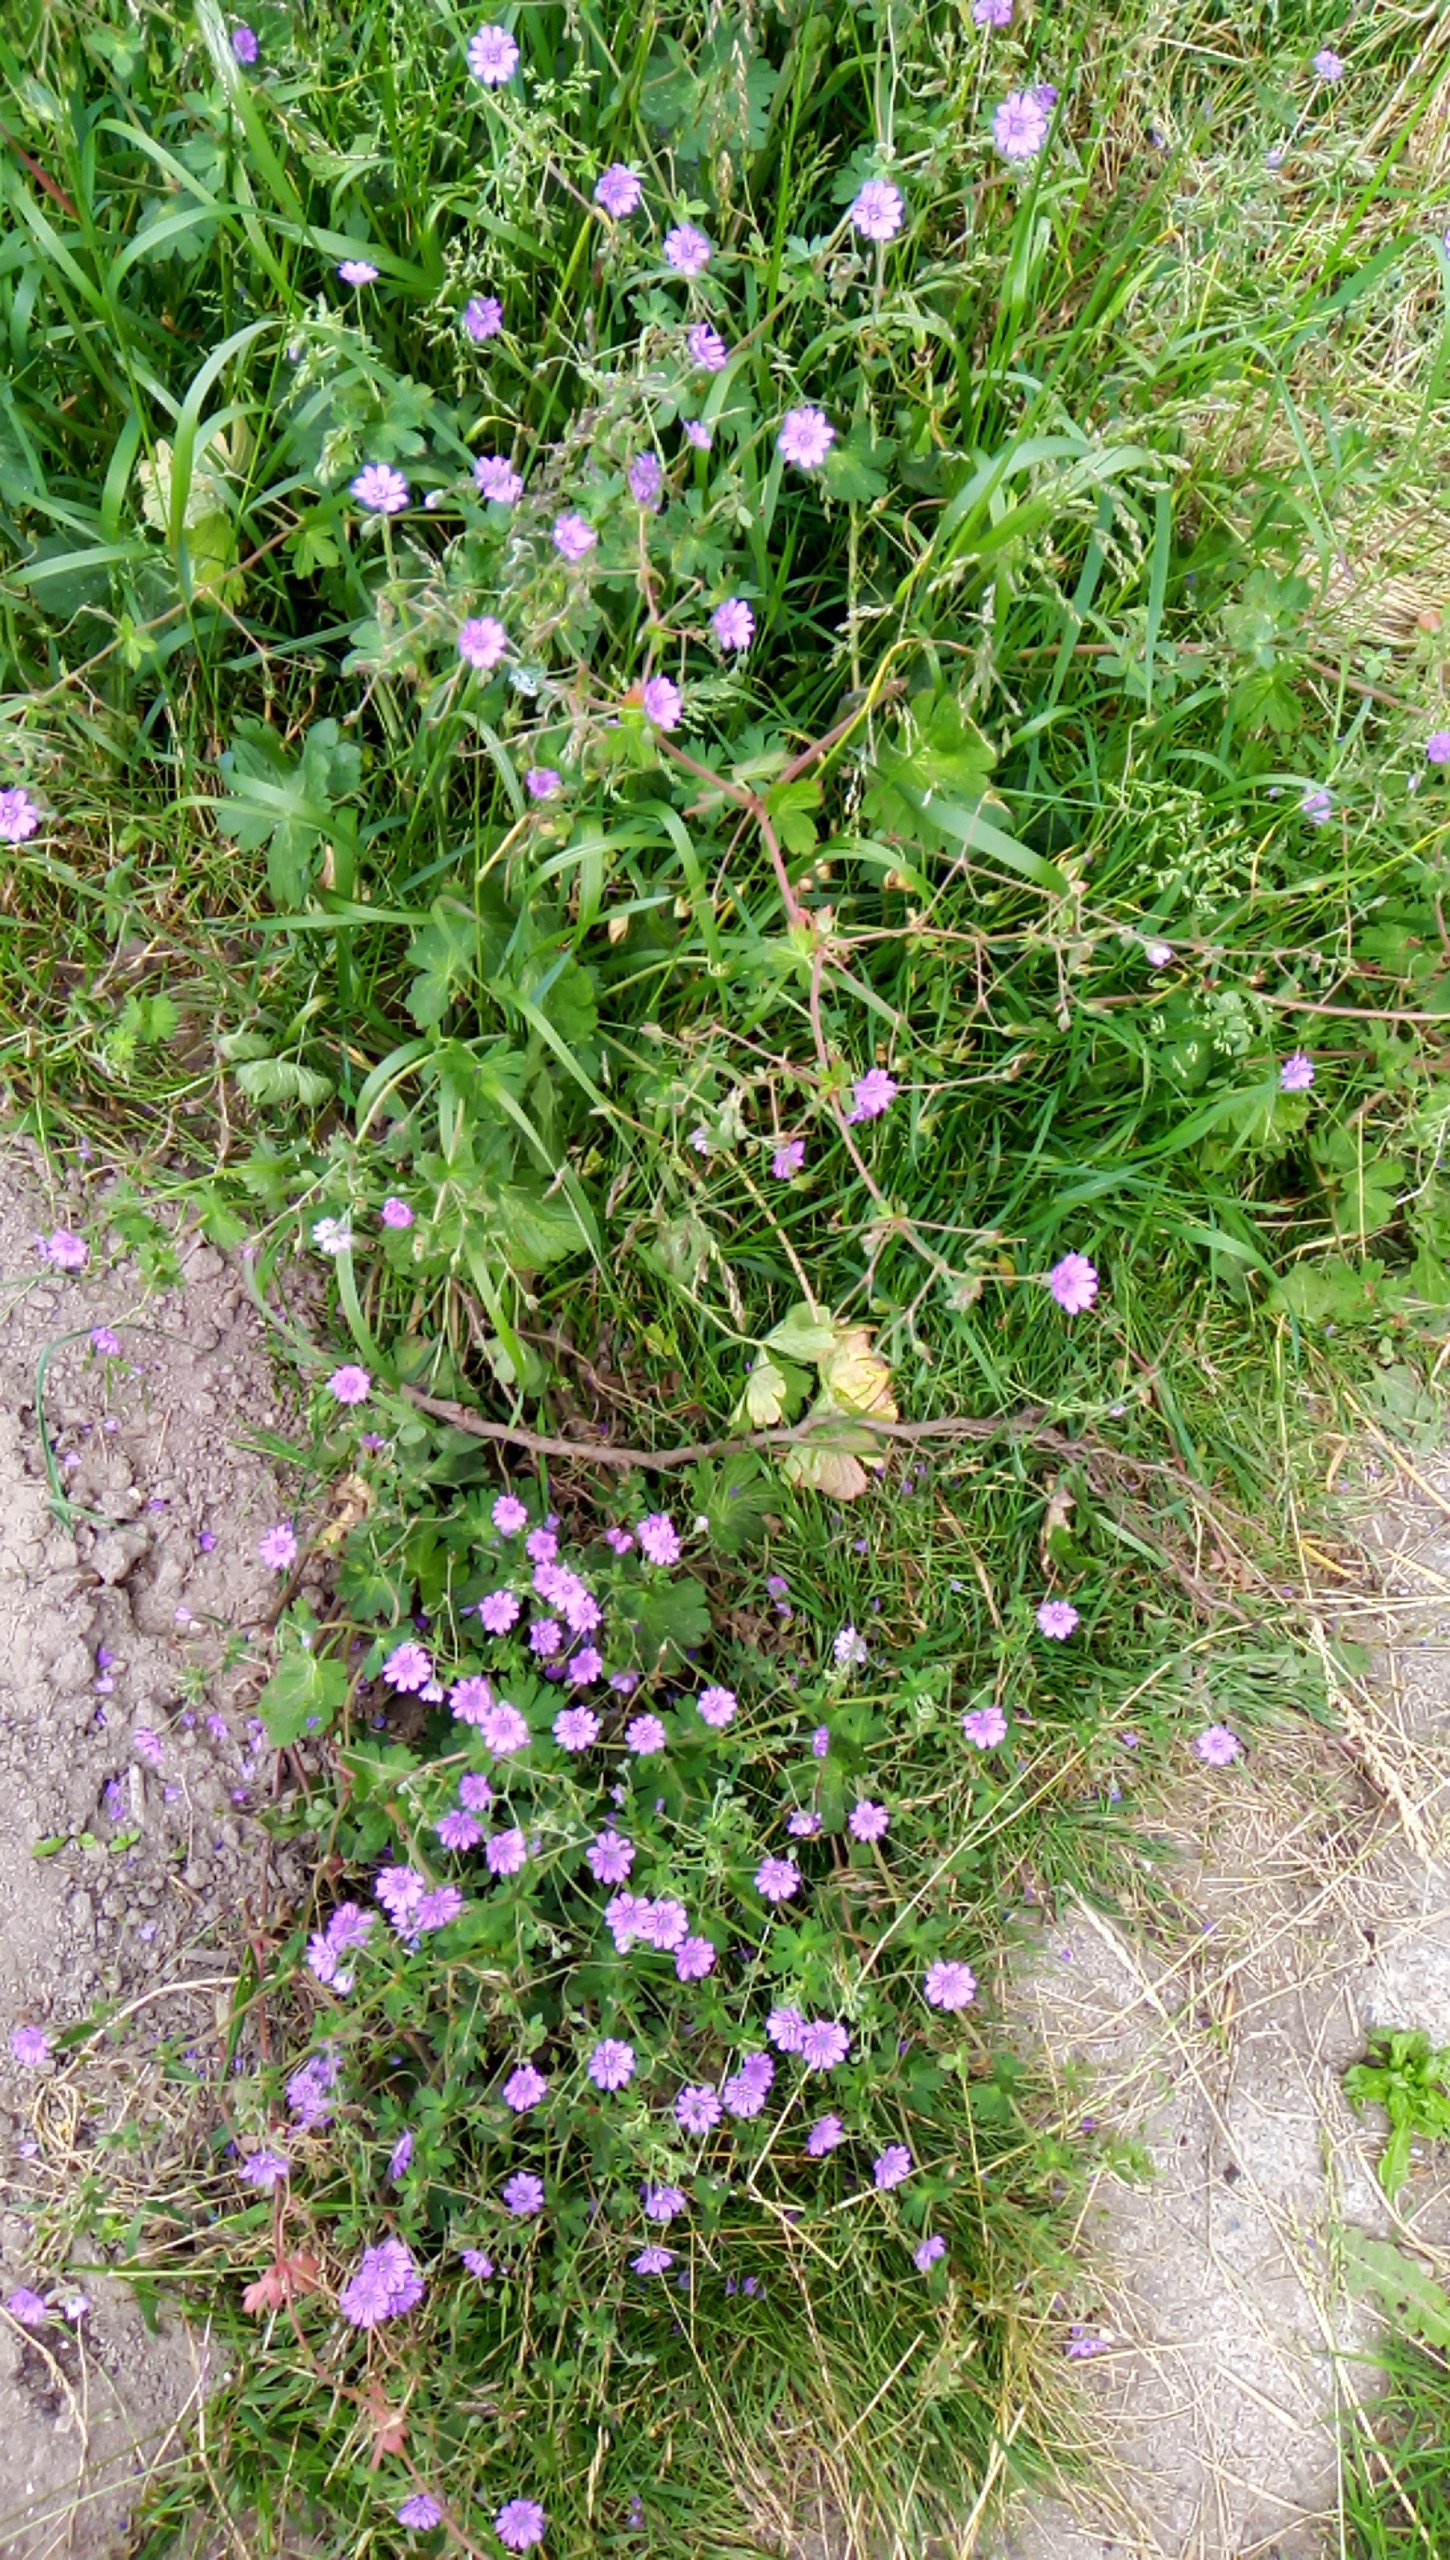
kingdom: Plantae
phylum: Tracheophyta
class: Magnoliopsida
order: Geraniales
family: Geraniaceae
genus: Geranium
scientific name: Geranium pyrenaicum
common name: Pyrenæisk storkenæb
